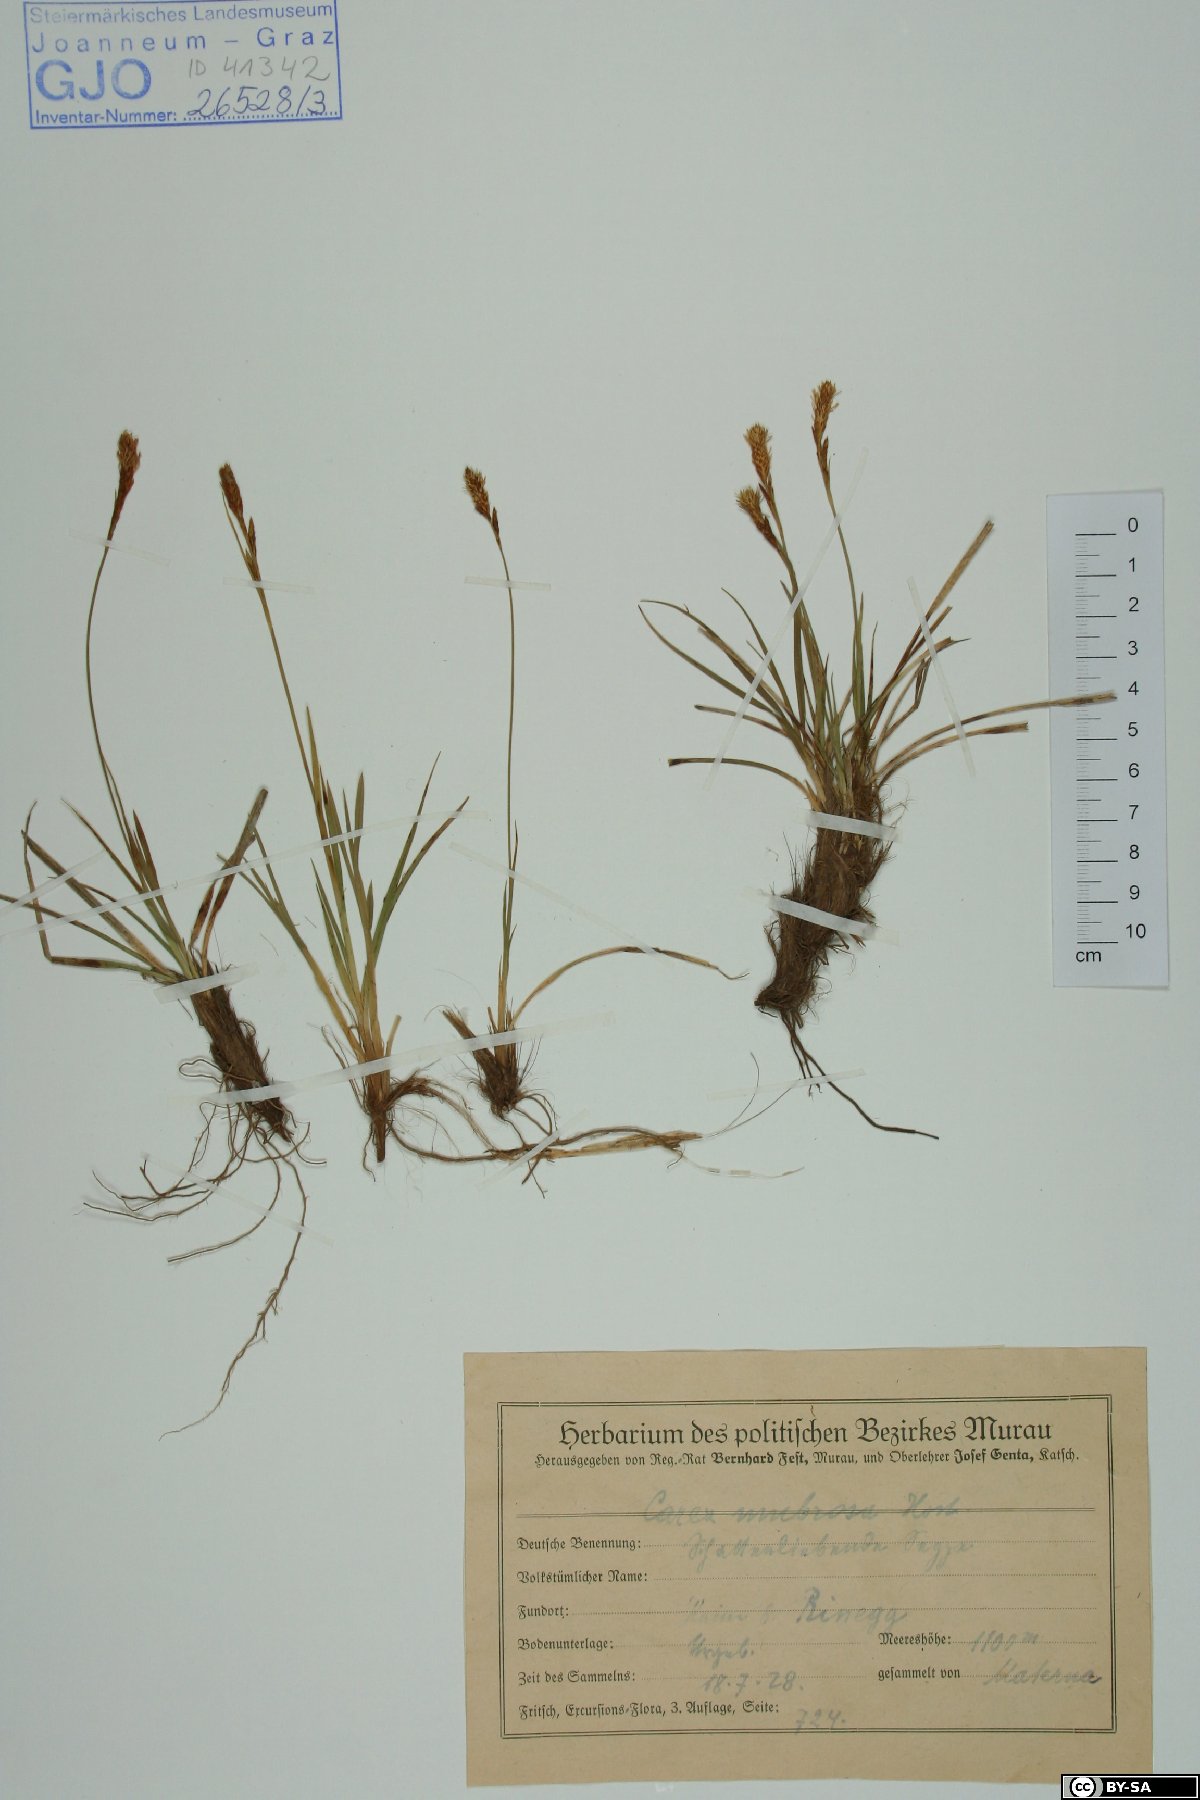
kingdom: Plantae
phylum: Tracheophyta
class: Liliopsida
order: Poales
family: Cyperaceae
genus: Carex
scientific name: Carex umbrosa
